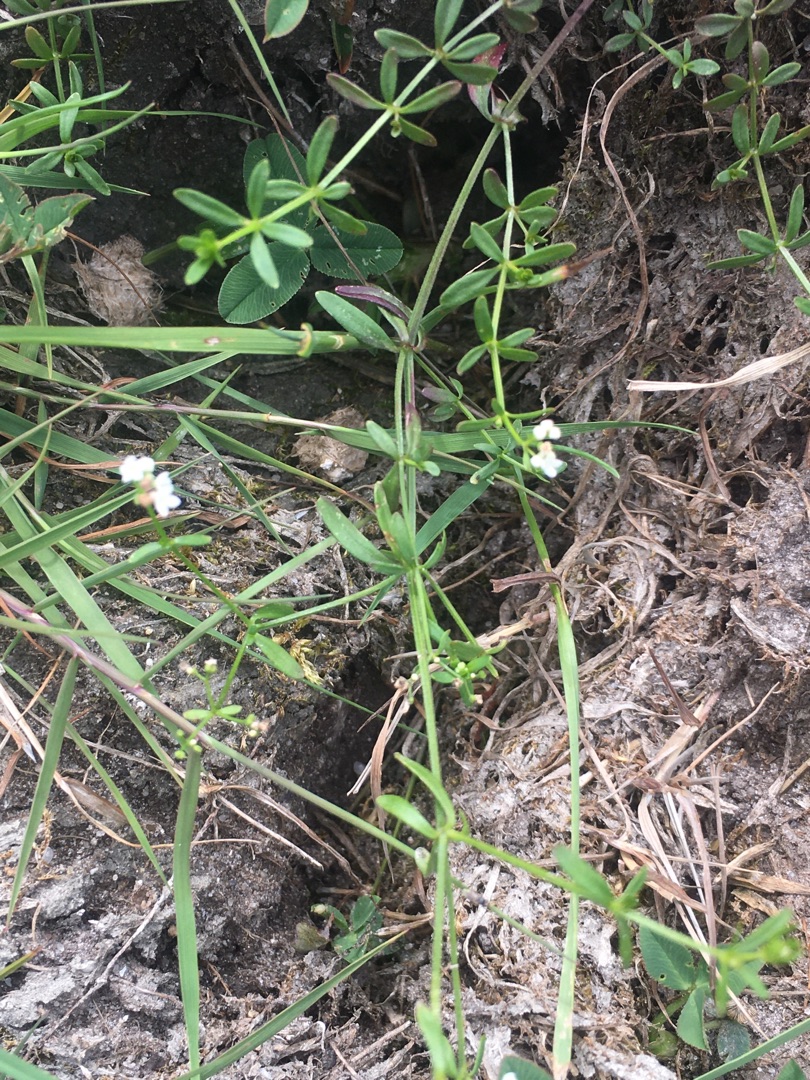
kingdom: Plantae
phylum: Tracheophyta
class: Magnoliopsida
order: Gentianales
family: Rubiaceae
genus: Galium
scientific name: Galium palustre
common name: Kær-snerre
